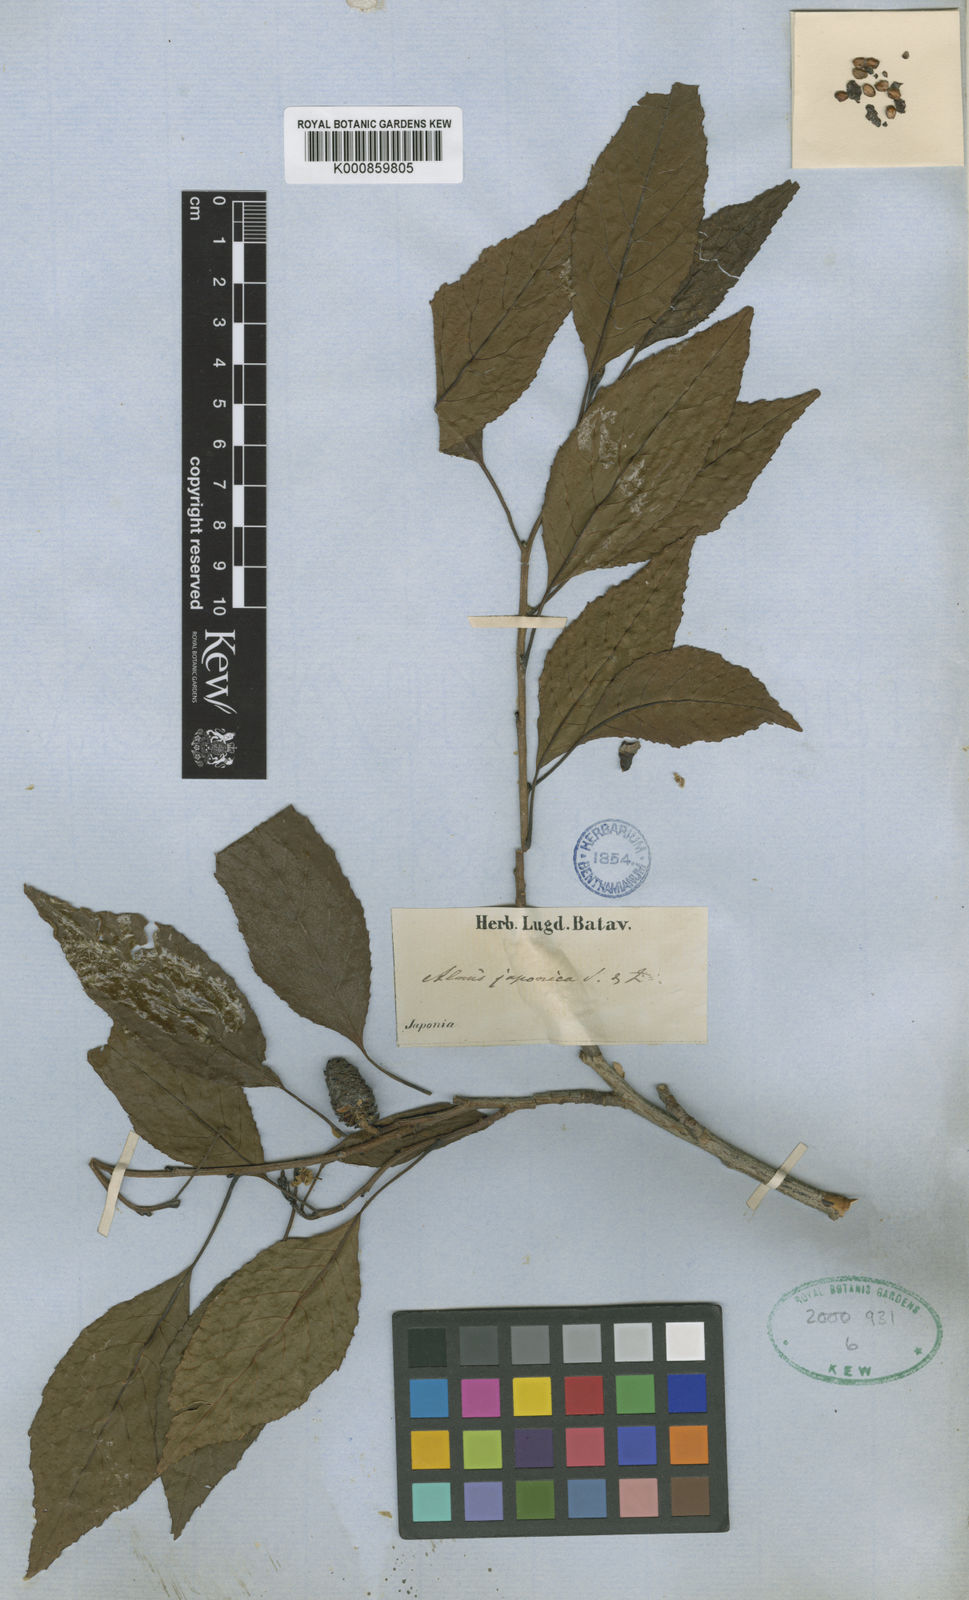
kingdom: Plantae
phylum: Tracheophyta
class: Magnoliopsida
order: Fagales
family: Betulaceae
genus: Alnus
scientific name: Alnus japonica
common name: Japanese alder
